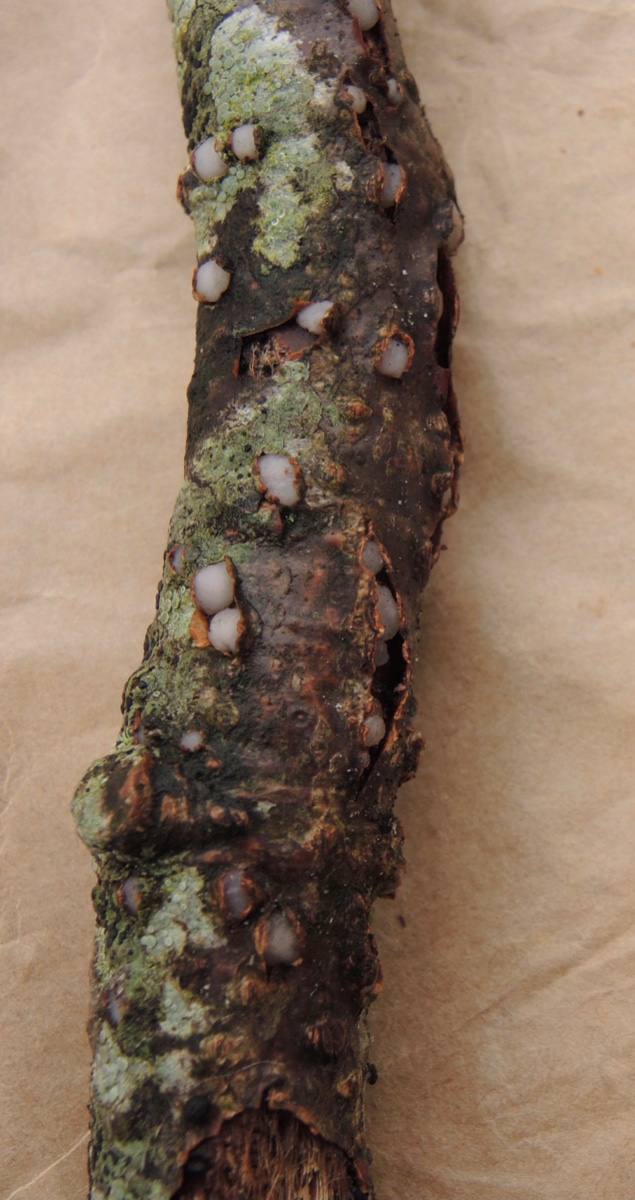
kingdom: Fungi
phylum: Basidiomycota
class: Pucciniomycetes
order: Platygloeales
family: Platygloeaceae
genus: Platygloea
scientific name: Platygloea disciformis
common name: linde-slimklat
